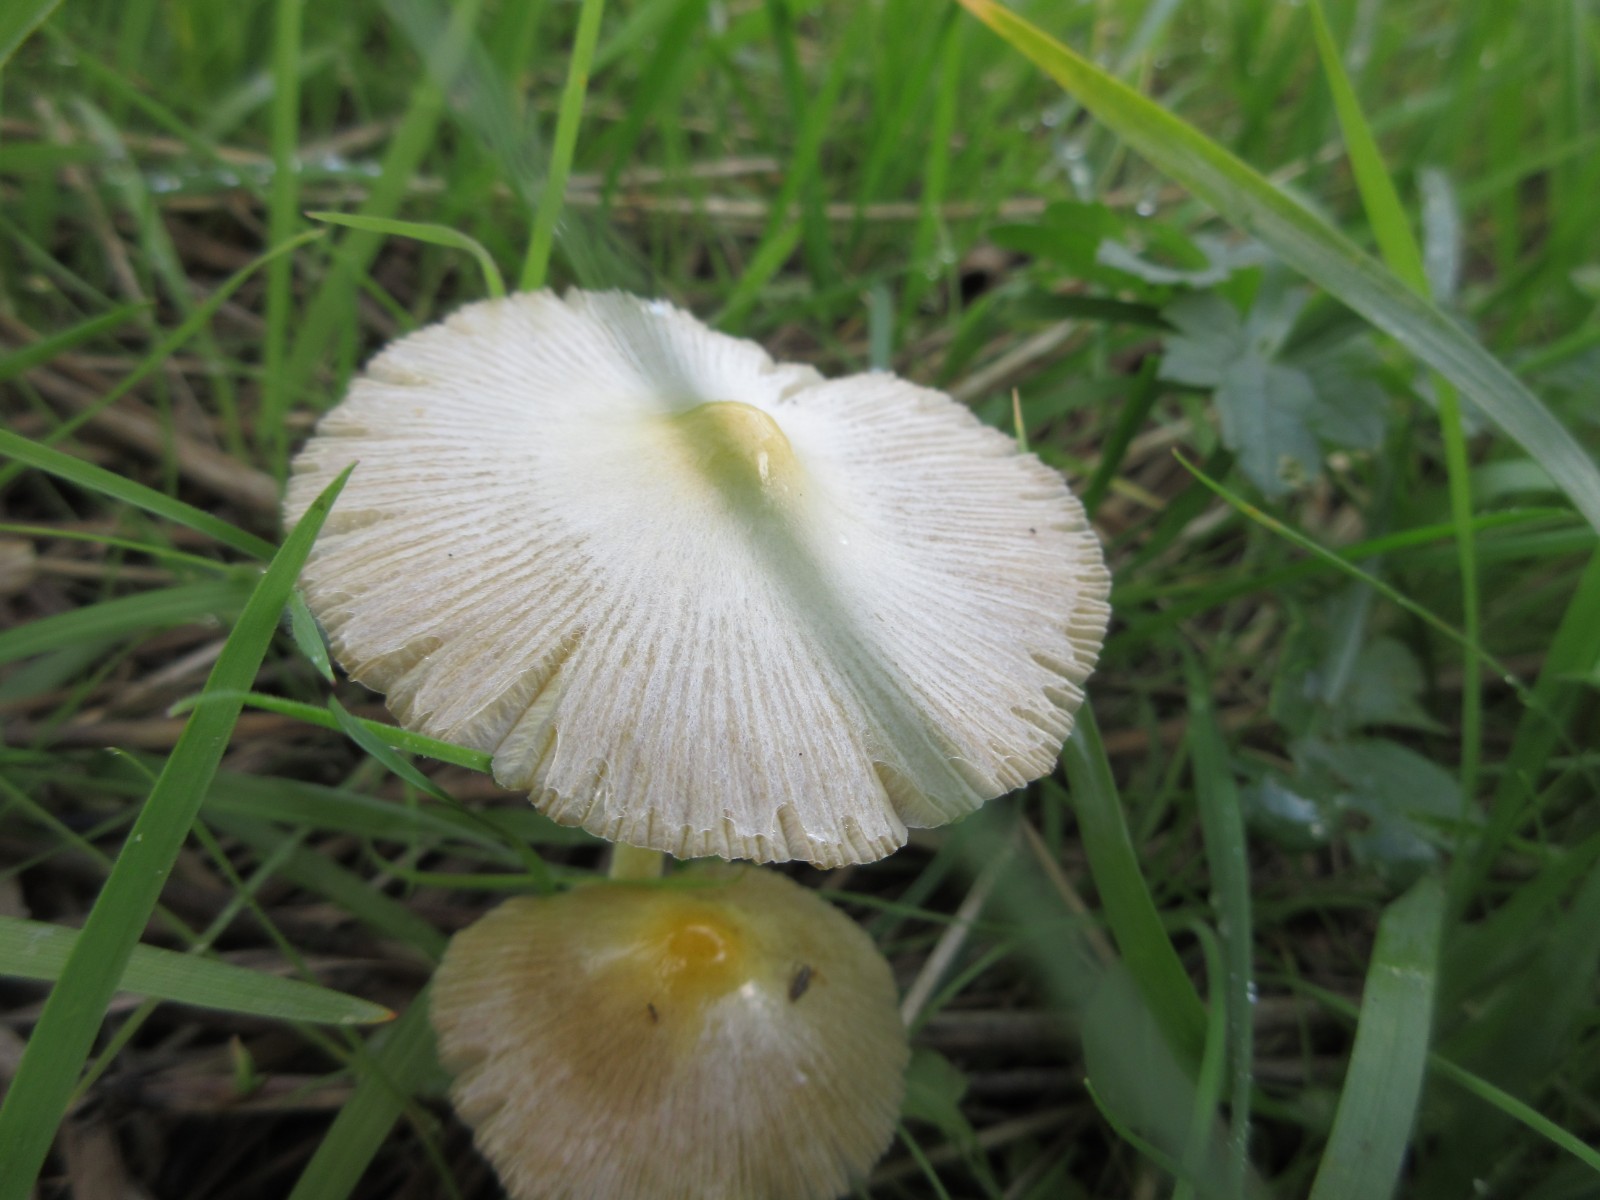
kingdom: Fungi
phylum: Basidiomycota
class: Agaricomycetes
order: Agaricales
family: Bolbitiaceae
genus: Bolbitius
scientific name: Bolbitius titubans
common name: almindelig gulhat
